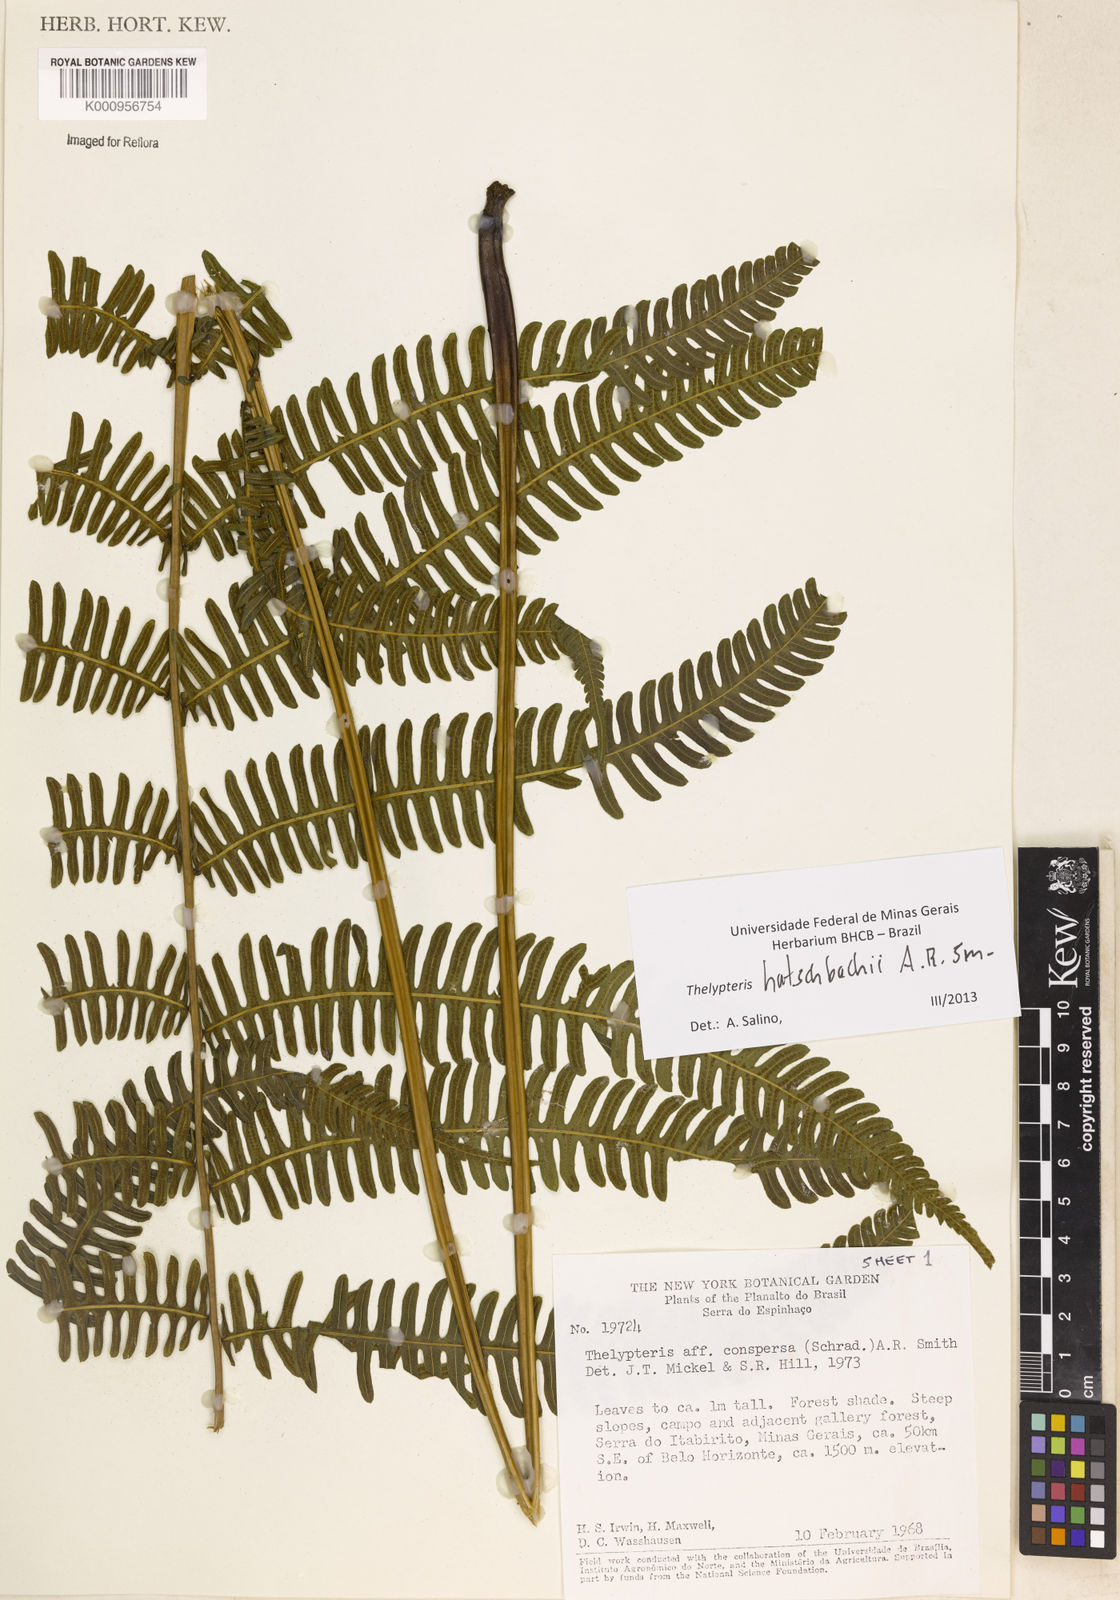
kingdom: Plantae
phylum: Tracheophyta
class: Polypodiopsida
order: Polypodiales
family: Thelypteridaceae
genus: Steiropteris
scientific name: Steiropteris hatschbachii
